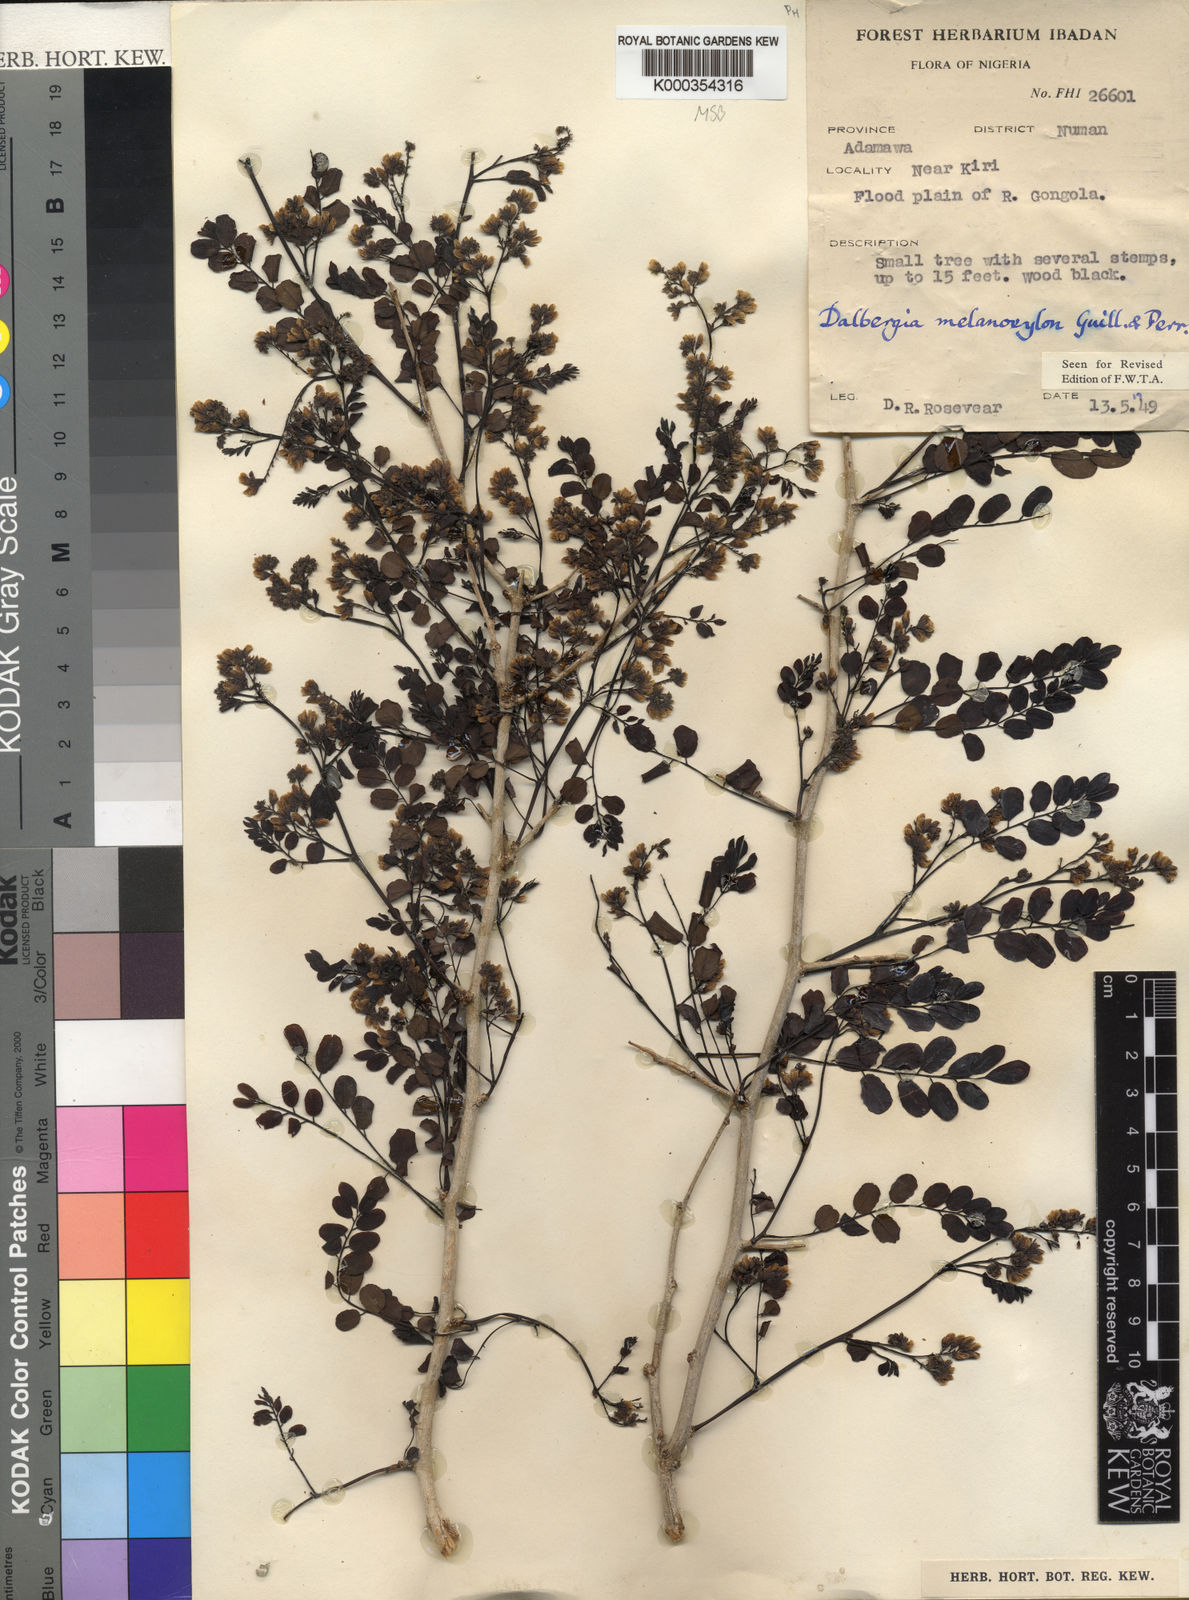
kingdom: Plantae
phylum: Tracheophyta
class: Magnoliopsida
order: Fabales
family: Fabaceae
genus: Dalbergia
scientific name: Dalbergia melanoxylon
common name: African blackwood
